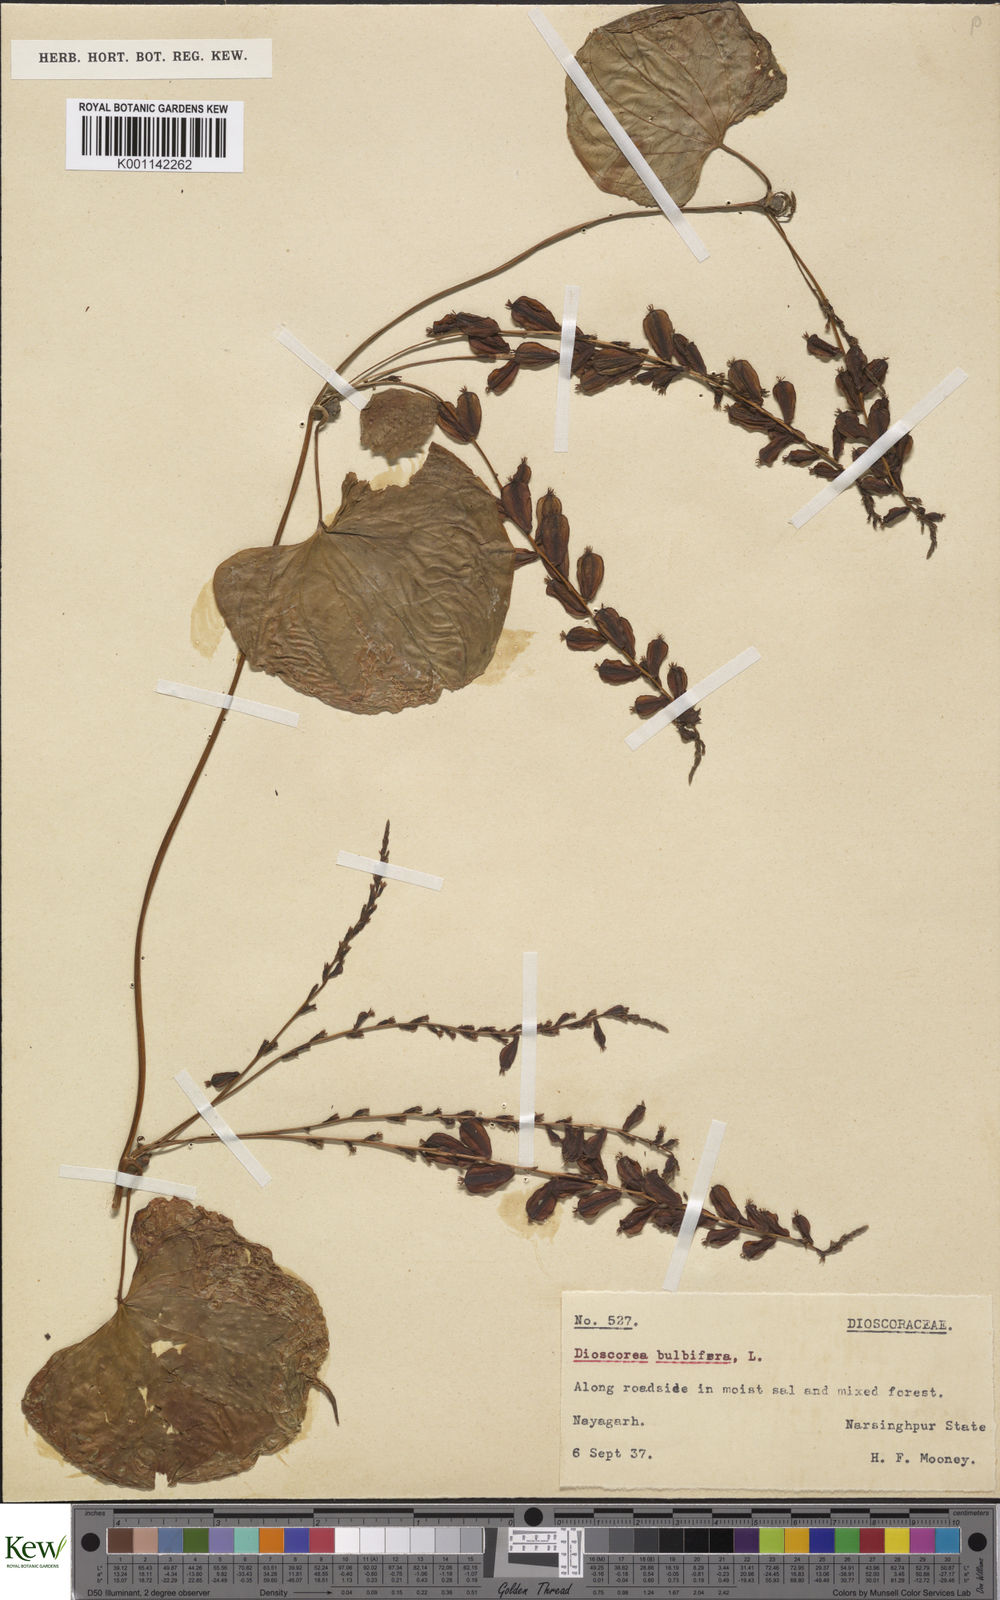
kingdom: Plantae
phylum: Tracheophyta
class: Liliopsida
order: Dioscoreales
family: Dioscoreaceae
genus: Dioscorea
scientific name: Dioscorea bulbifera
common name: Air yam
